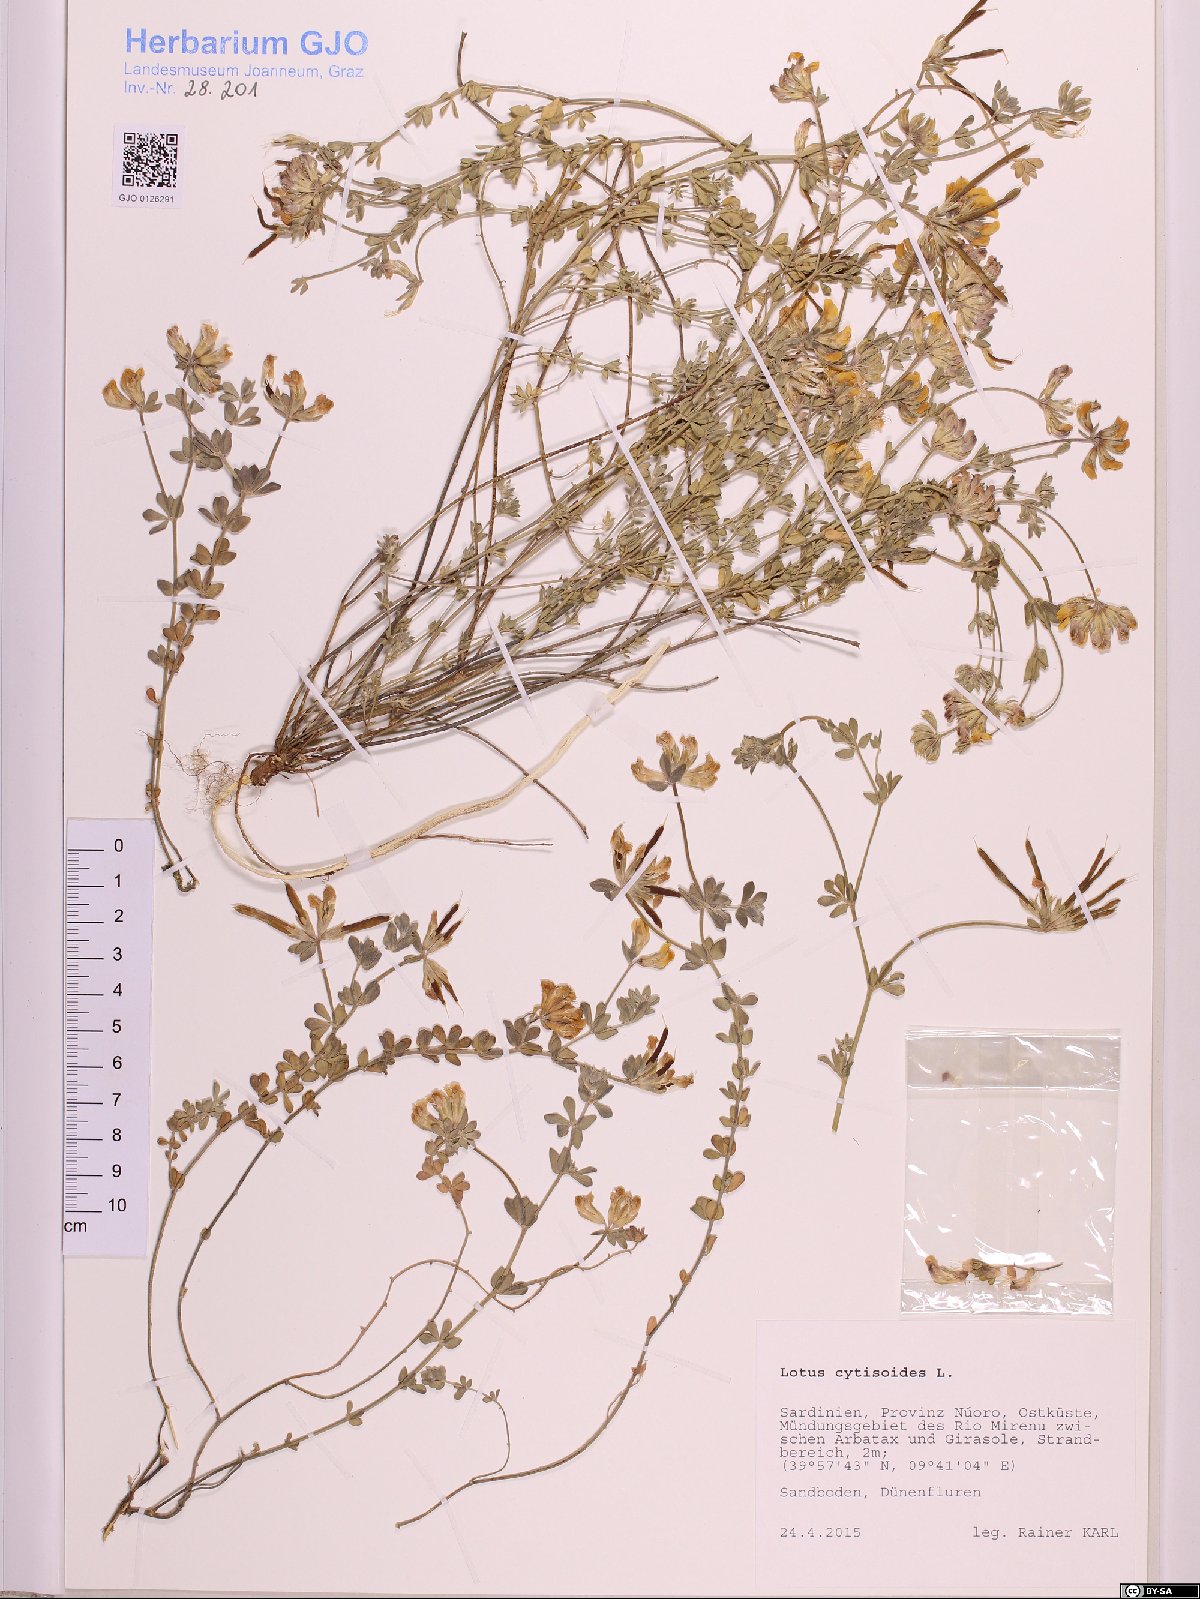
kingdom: Plantae
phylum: Tracheophyta
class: Magnoliopsida
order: Fabales
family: Fabaceae
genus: Lotus
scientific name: Lotus cytisoides
